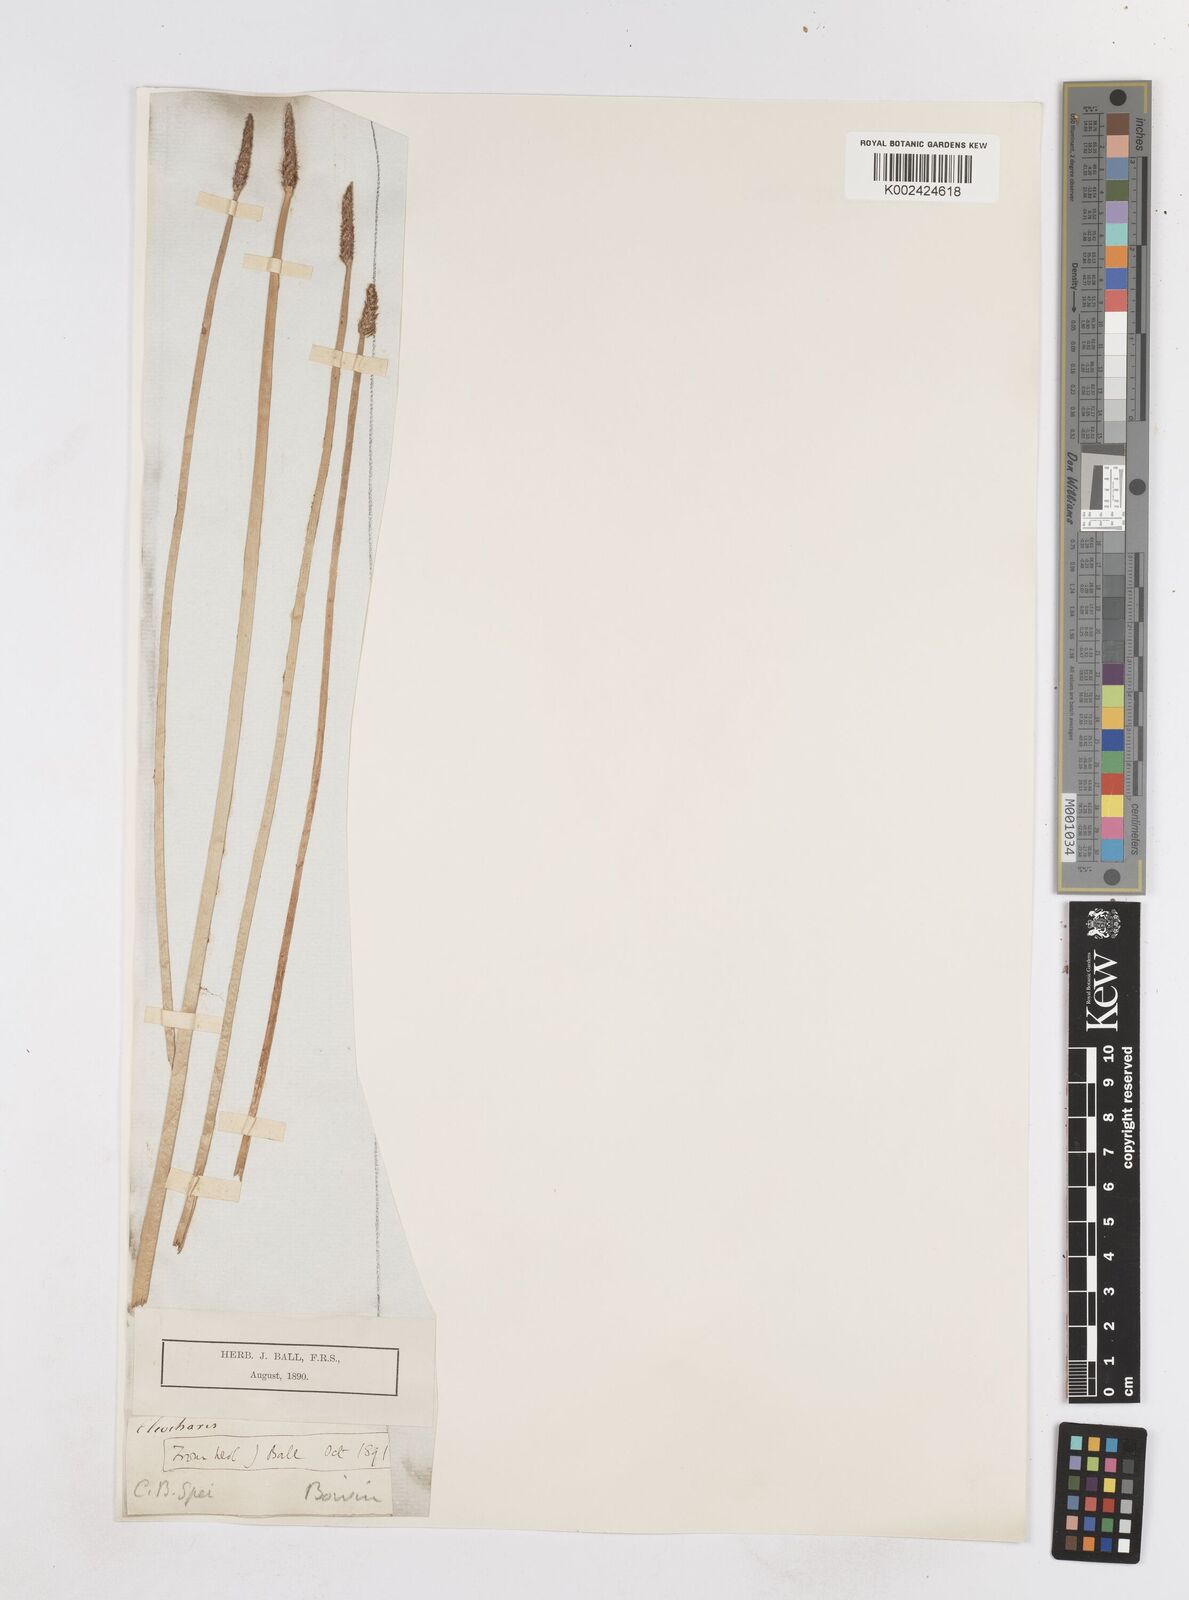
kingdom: Plantae
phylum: Tracheophyta
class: Liliopsida
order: Poales
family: Cyperaceae
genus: Eleocharis
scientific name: Eleocharis limosa
